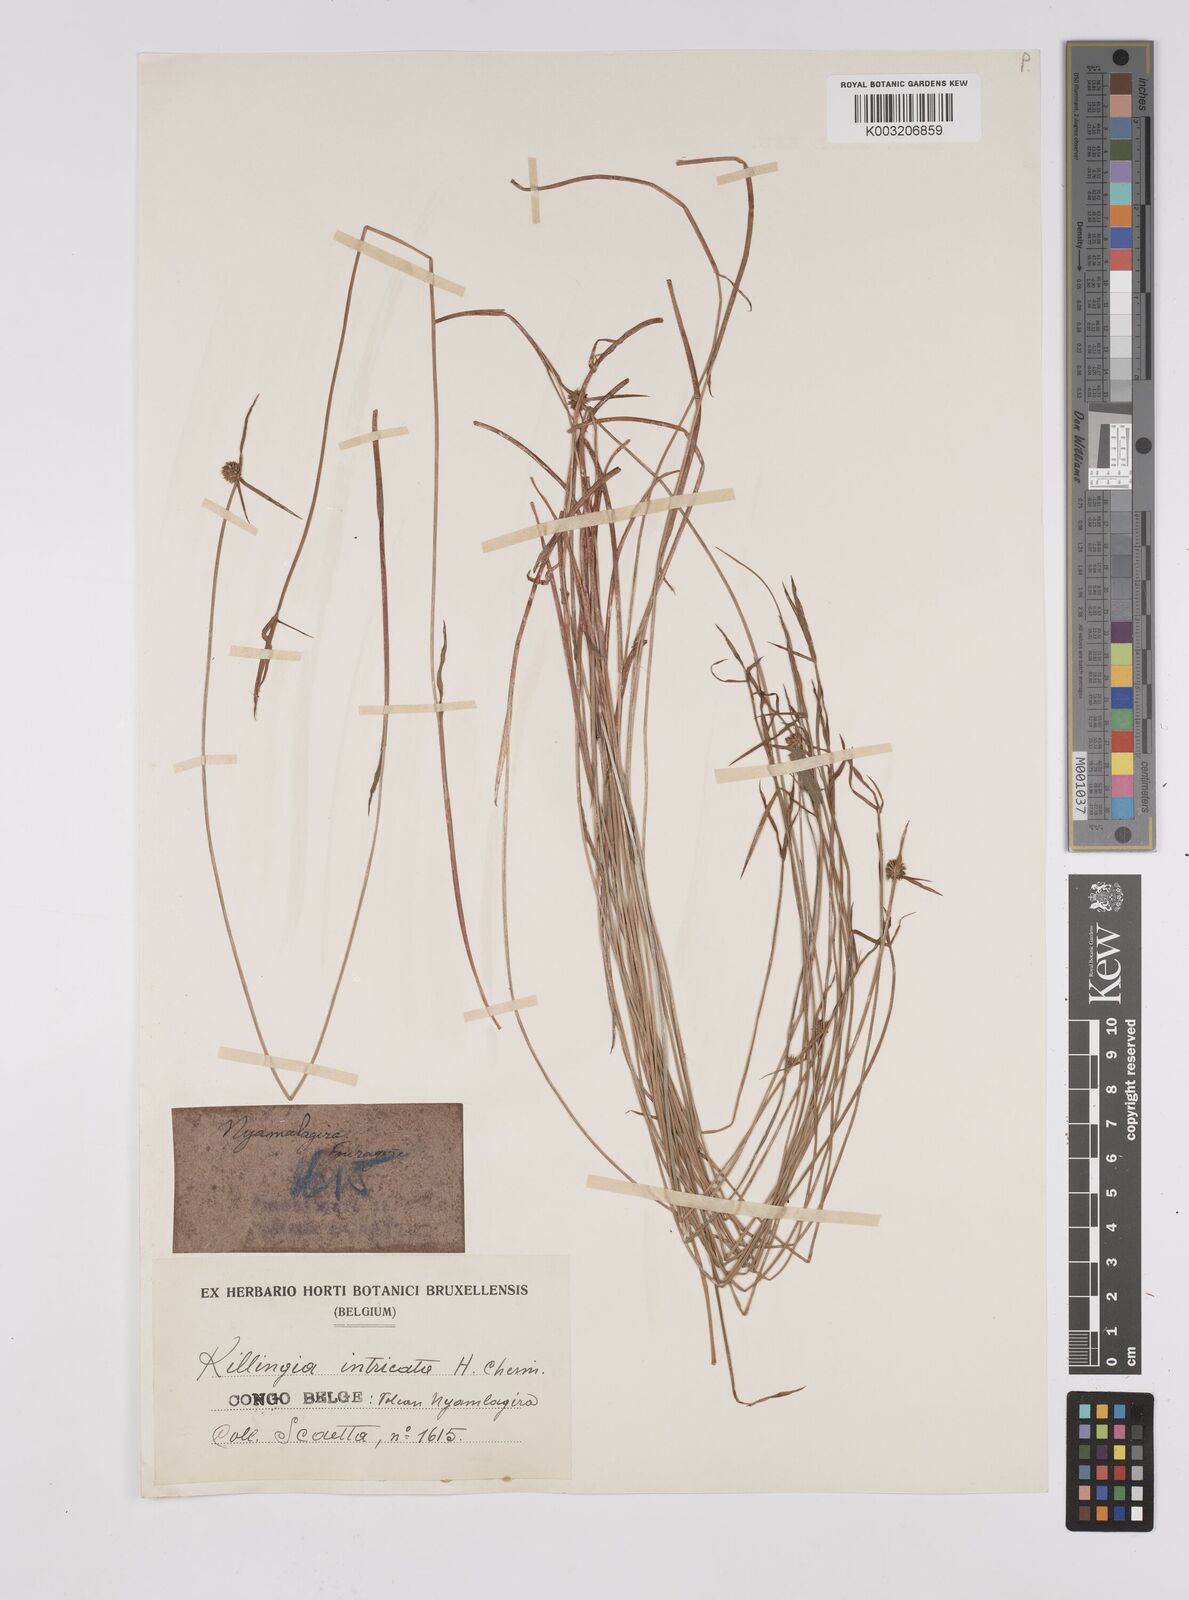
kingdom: Plantae
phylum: Tracheophyta
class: Liliopsida
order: Poales
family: Cyperaceae
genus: Cyperus
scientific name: Cyperus erectus
